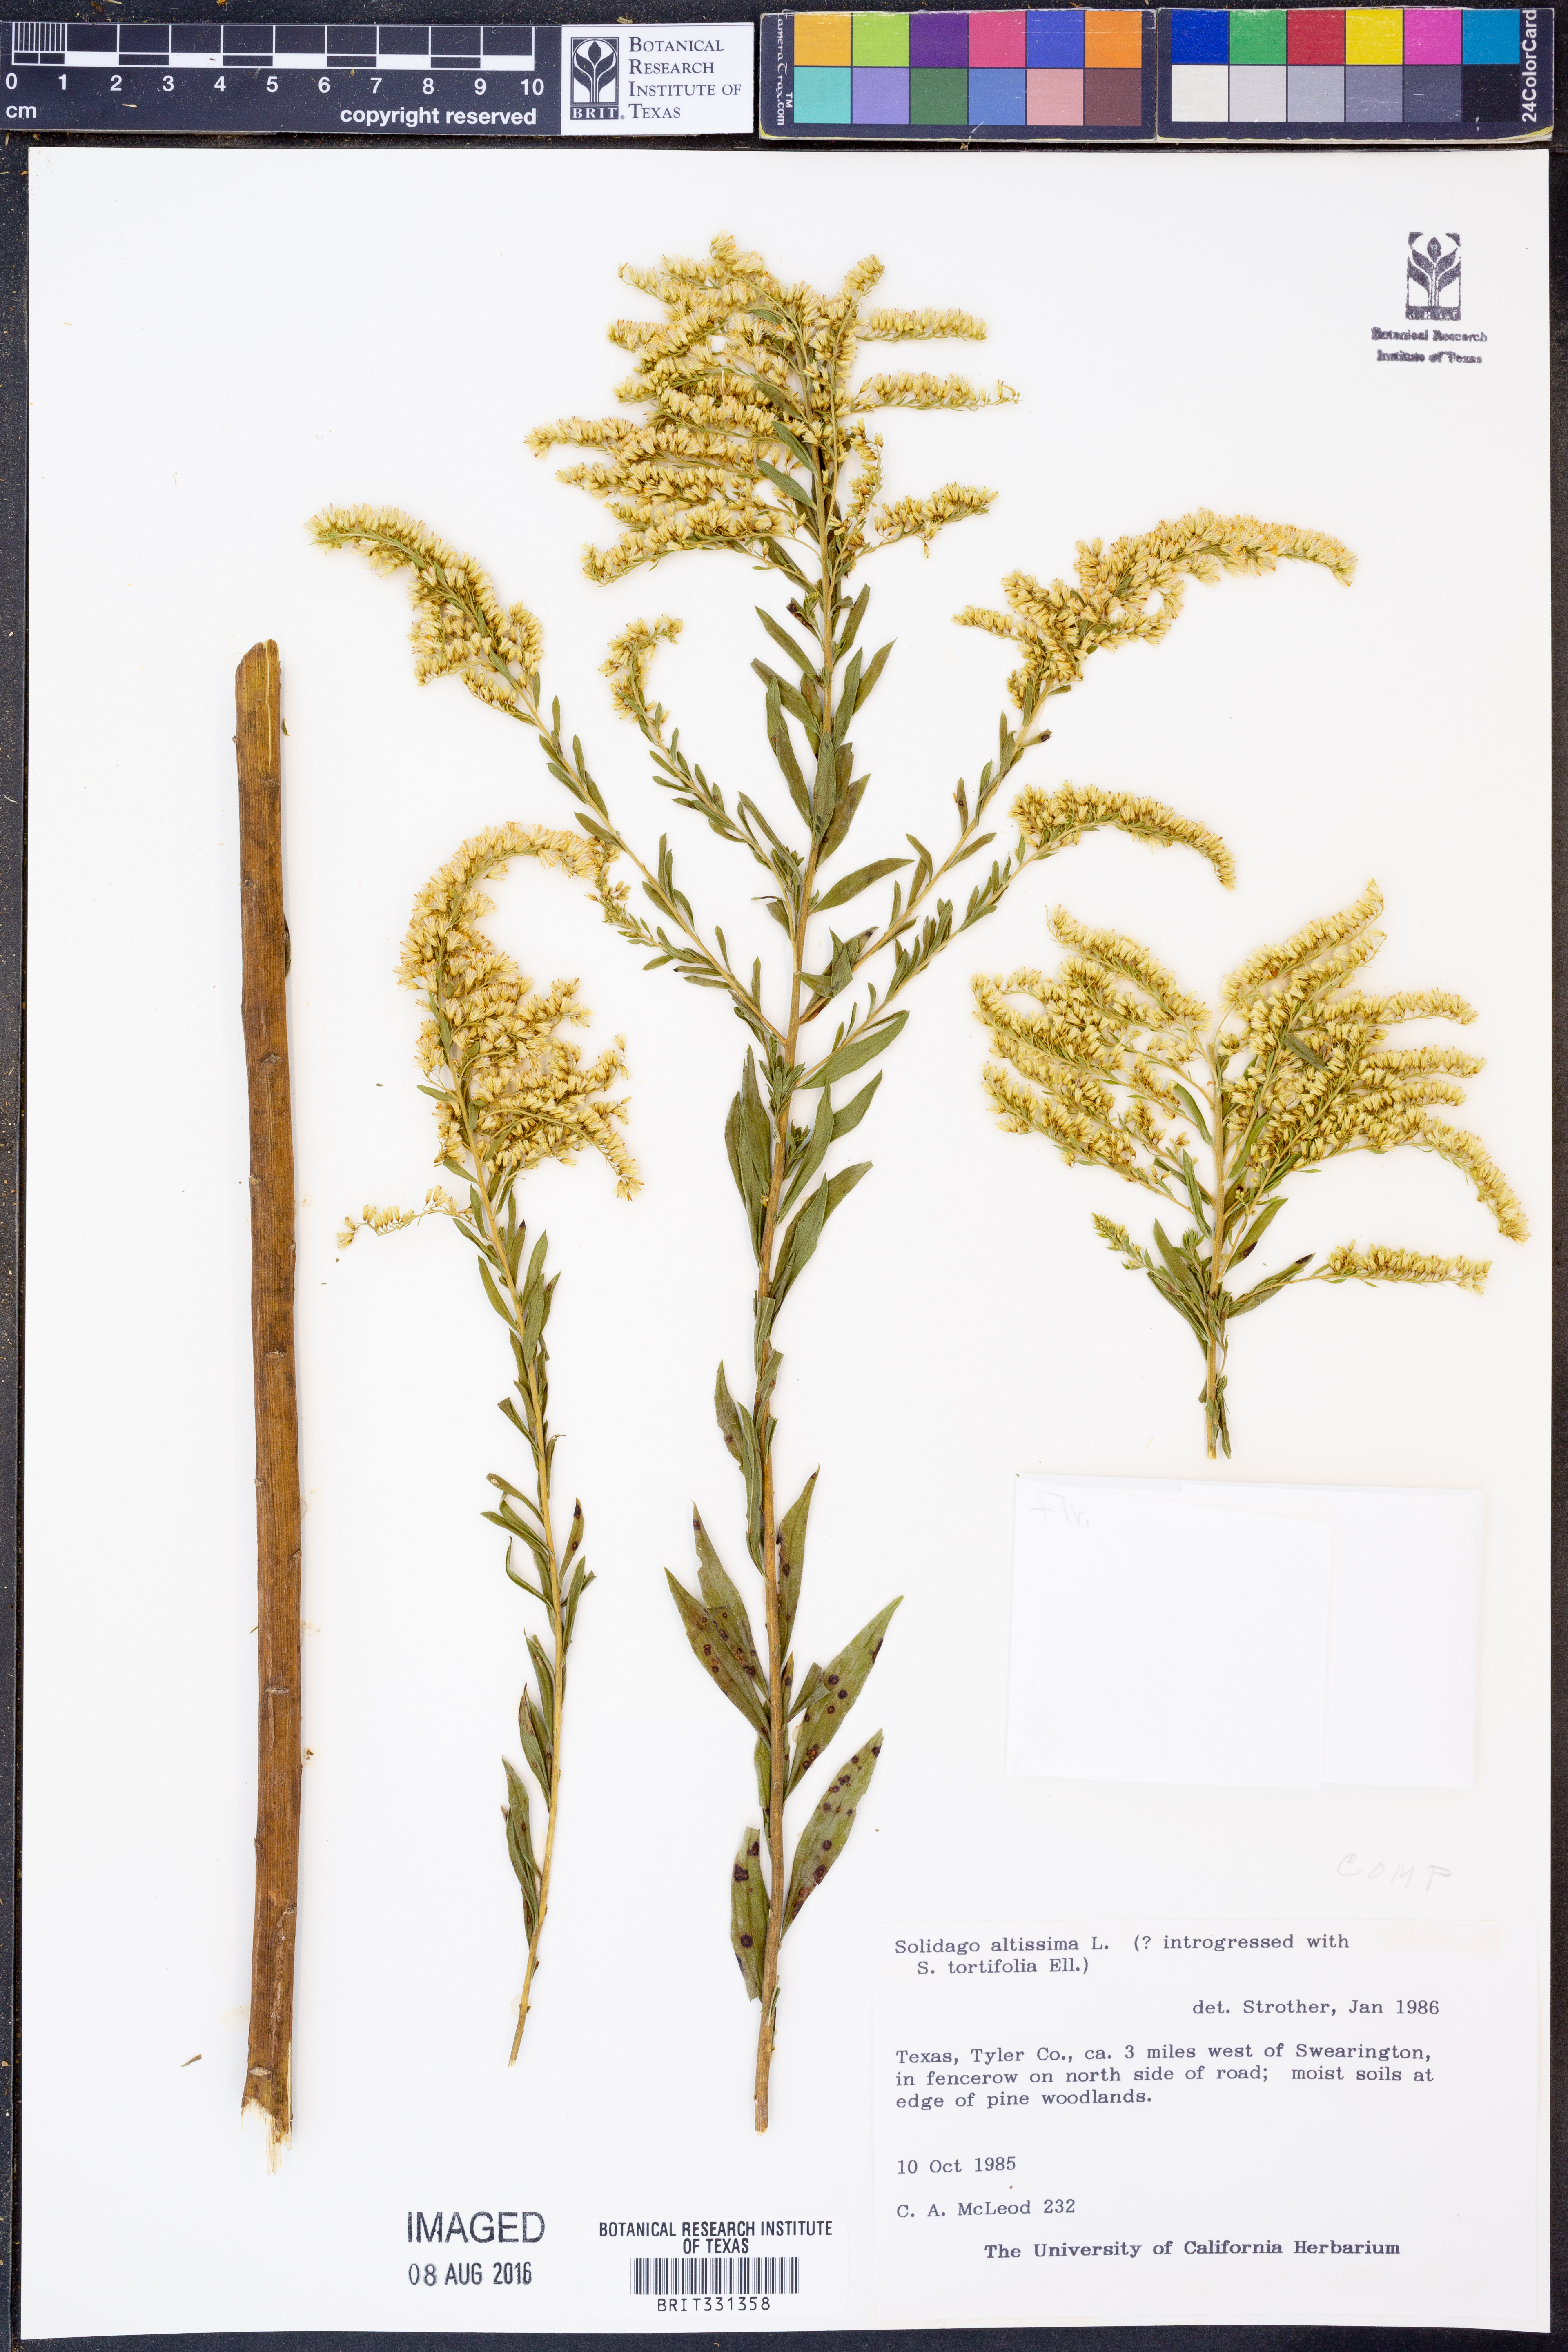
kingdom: Plantae
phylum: Tracheophyta
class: Magnoliopsida
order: Asterales
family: Asteraceae
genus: Solidago
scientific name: Solidago altissima
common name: Late goldenrod
